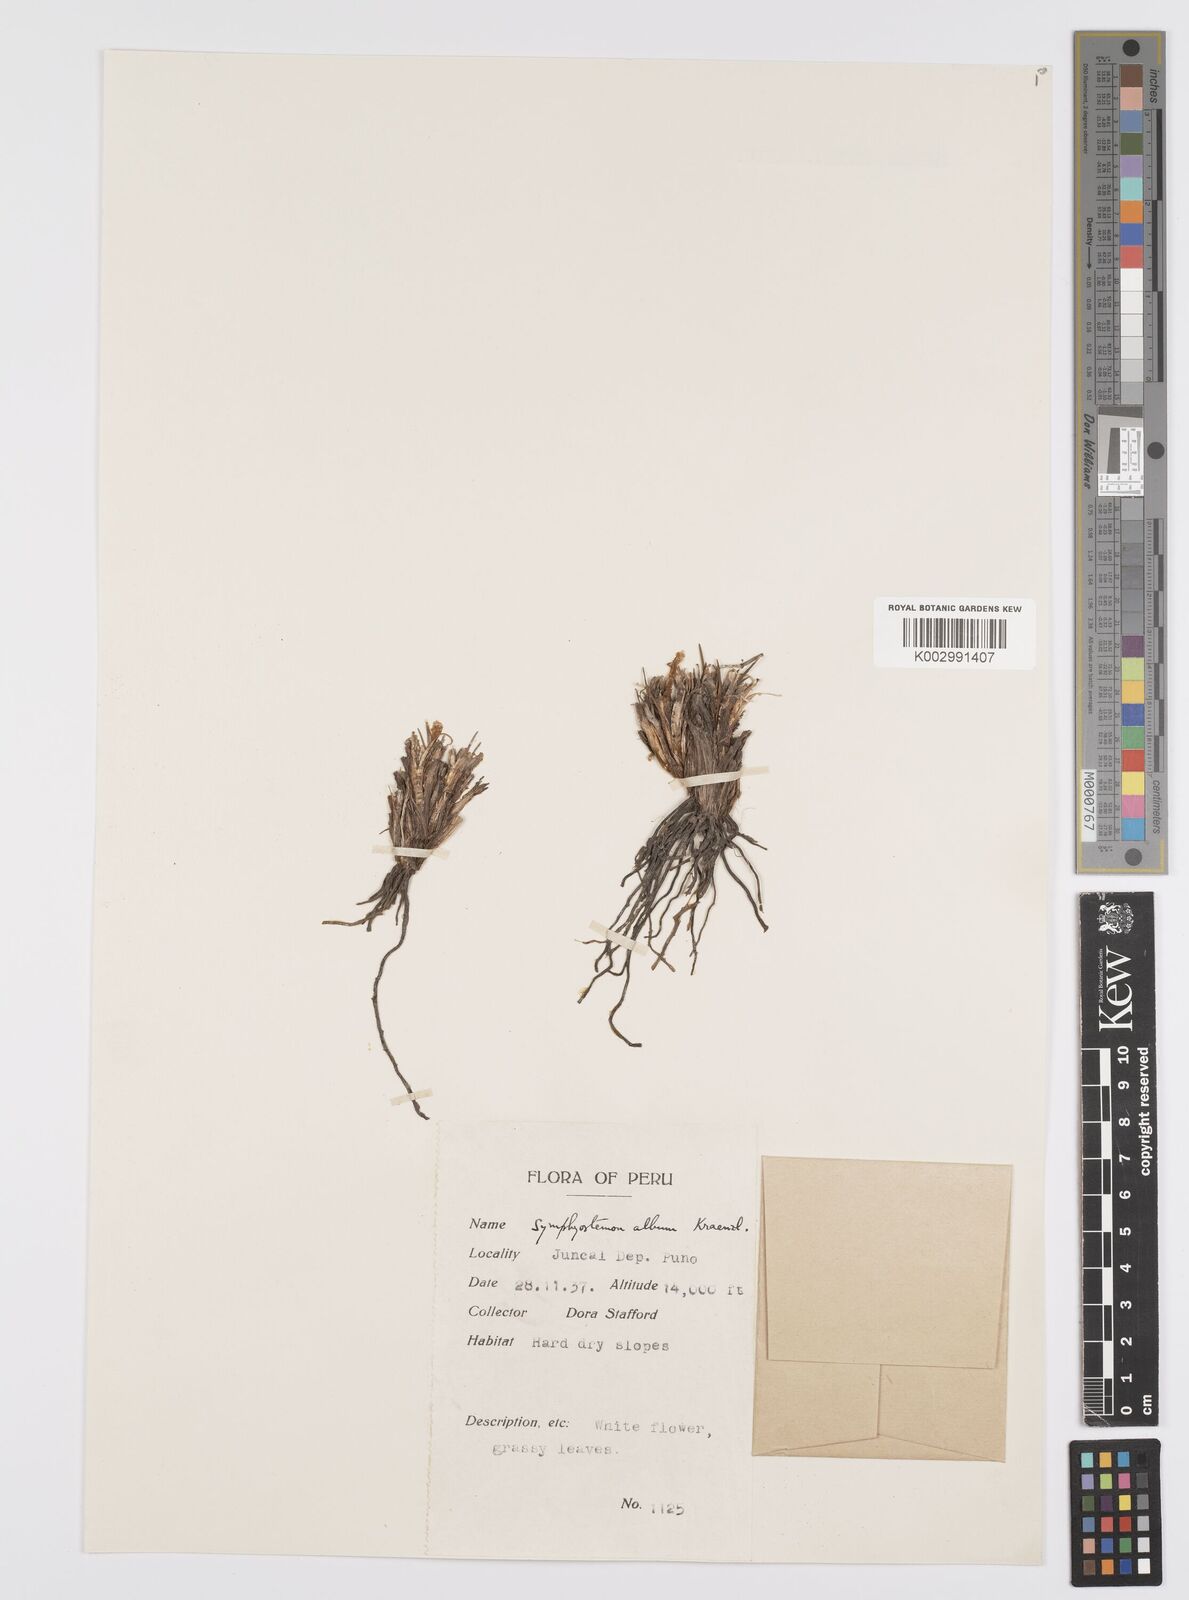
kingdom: Plantae
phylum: Tracheophyta
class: Liliopsida
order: Asparagales
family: Iridaceae
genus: Olsynium
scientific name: Olsynium
